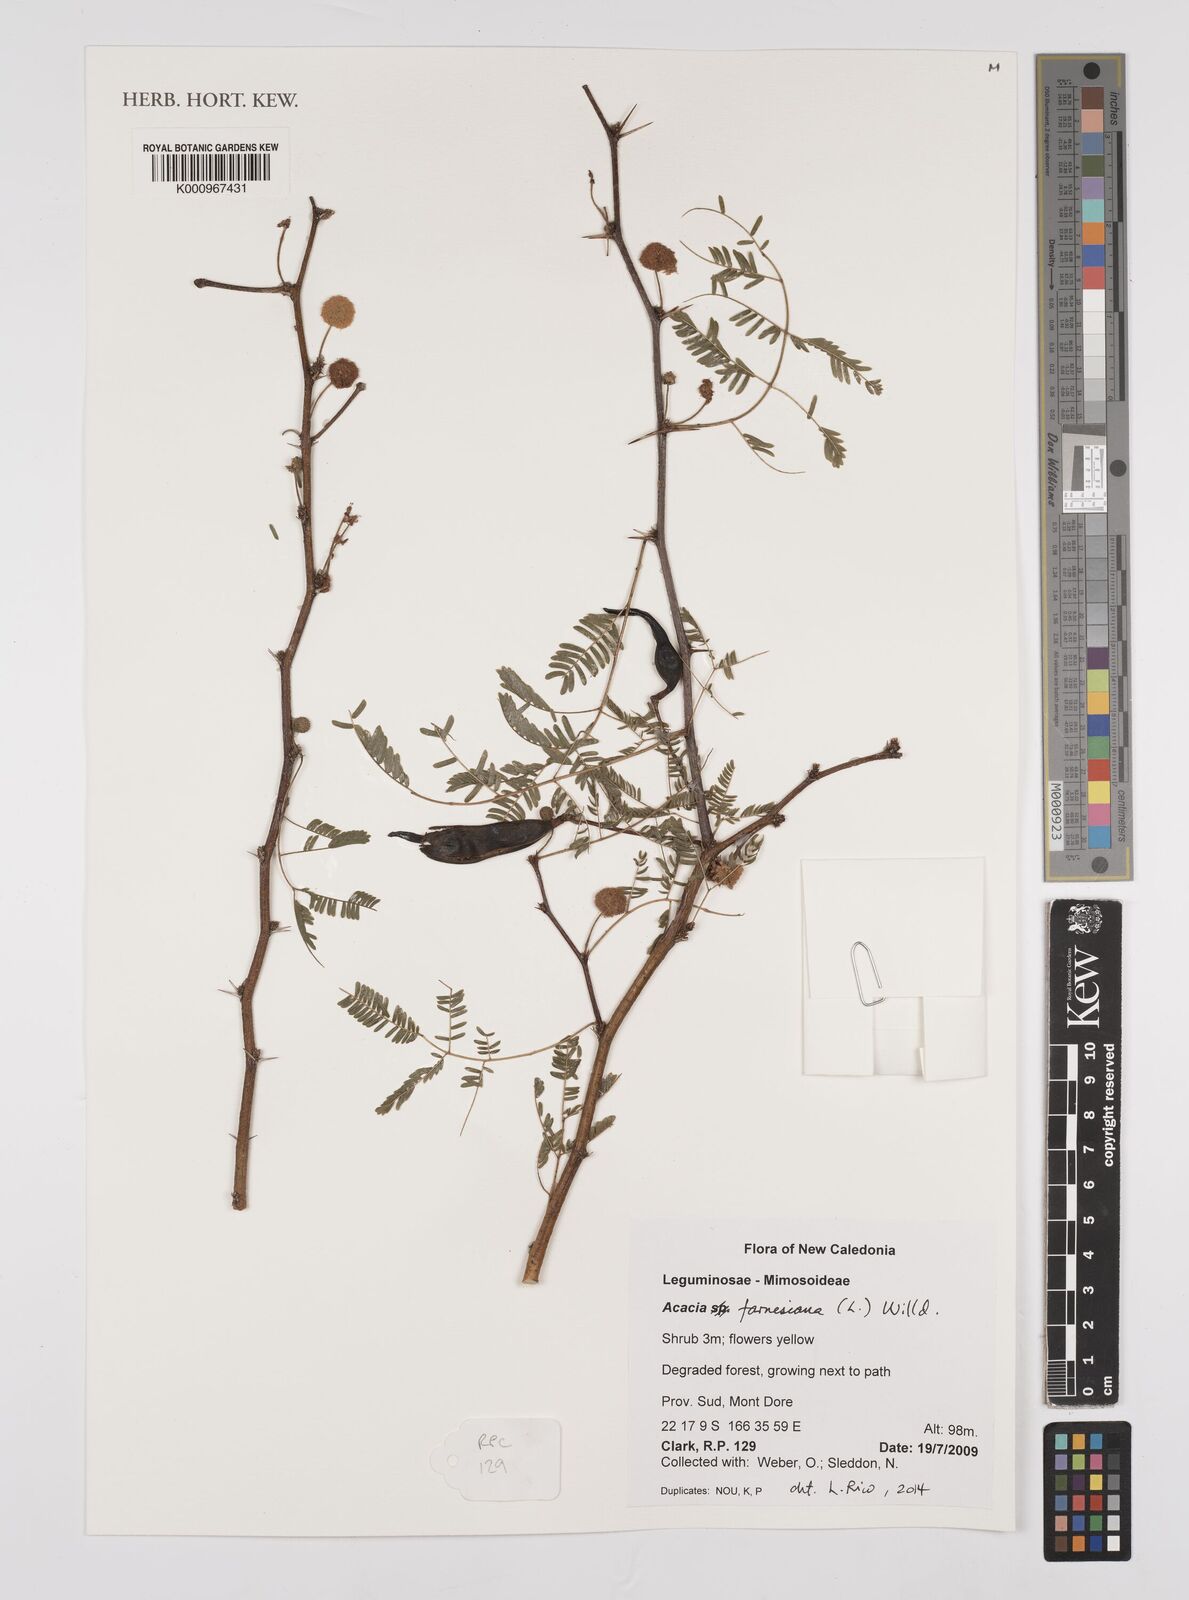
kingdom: Plantae
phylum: Tracheophyta
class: Magnoliopsida
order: Fabales
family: Fabaceae
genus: Vachellia
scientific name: Vachellia farnesiana
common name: Sweet acacia
